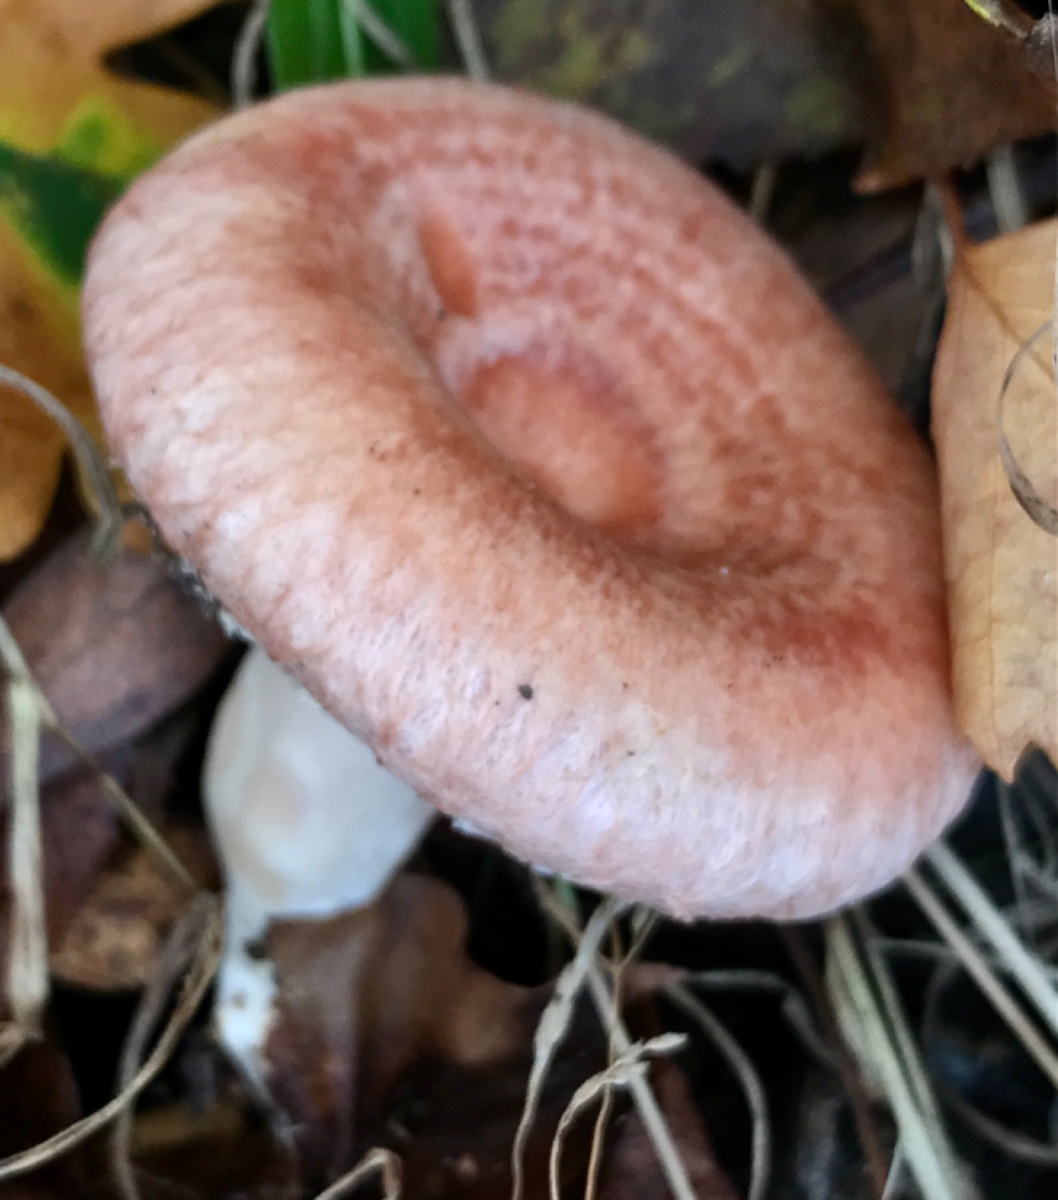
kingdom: Fungi
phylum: Basidiomycota
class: Agaricomycetes
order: Russulales
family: Russulaceae
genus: Lactarius
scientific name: Lactarius torminosus
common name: skægget mælkehat
